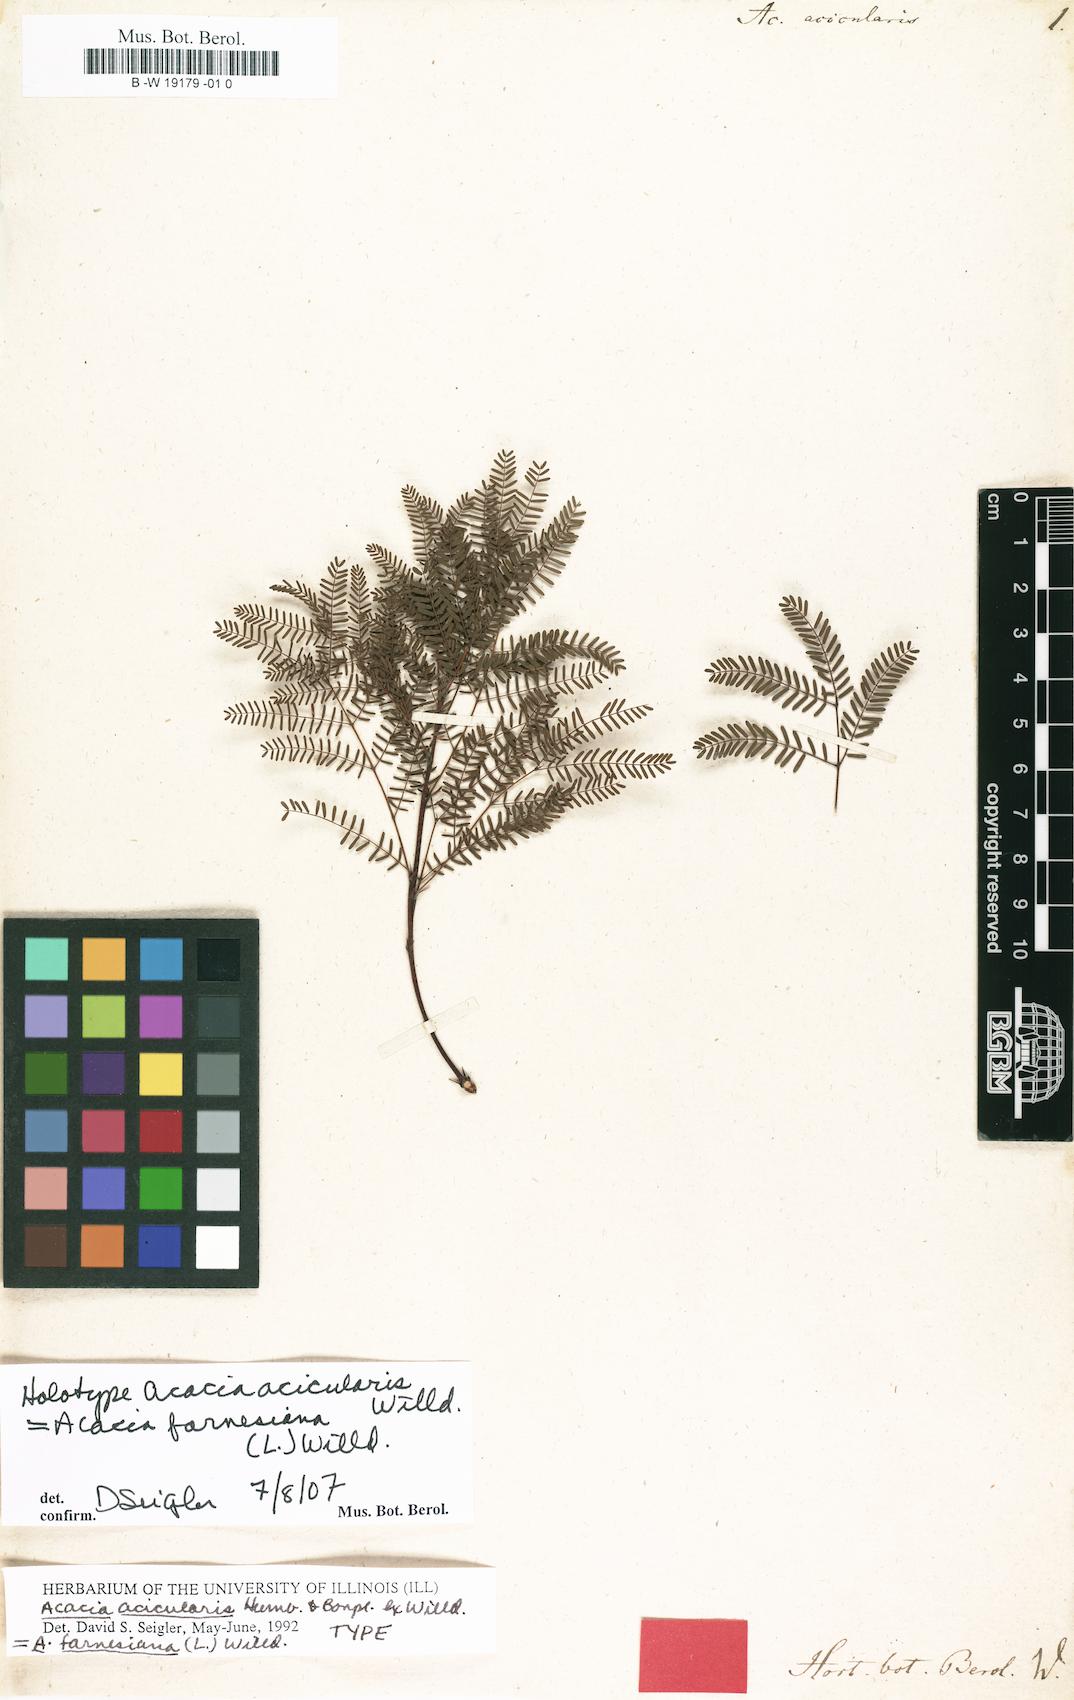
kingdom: Plantae
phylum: Tracheophyta
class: Magnoliopsida
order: Fabales
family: Fabaceae
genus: Vachellia
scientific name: Vachellia farnesiana
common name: Sweet acacia
